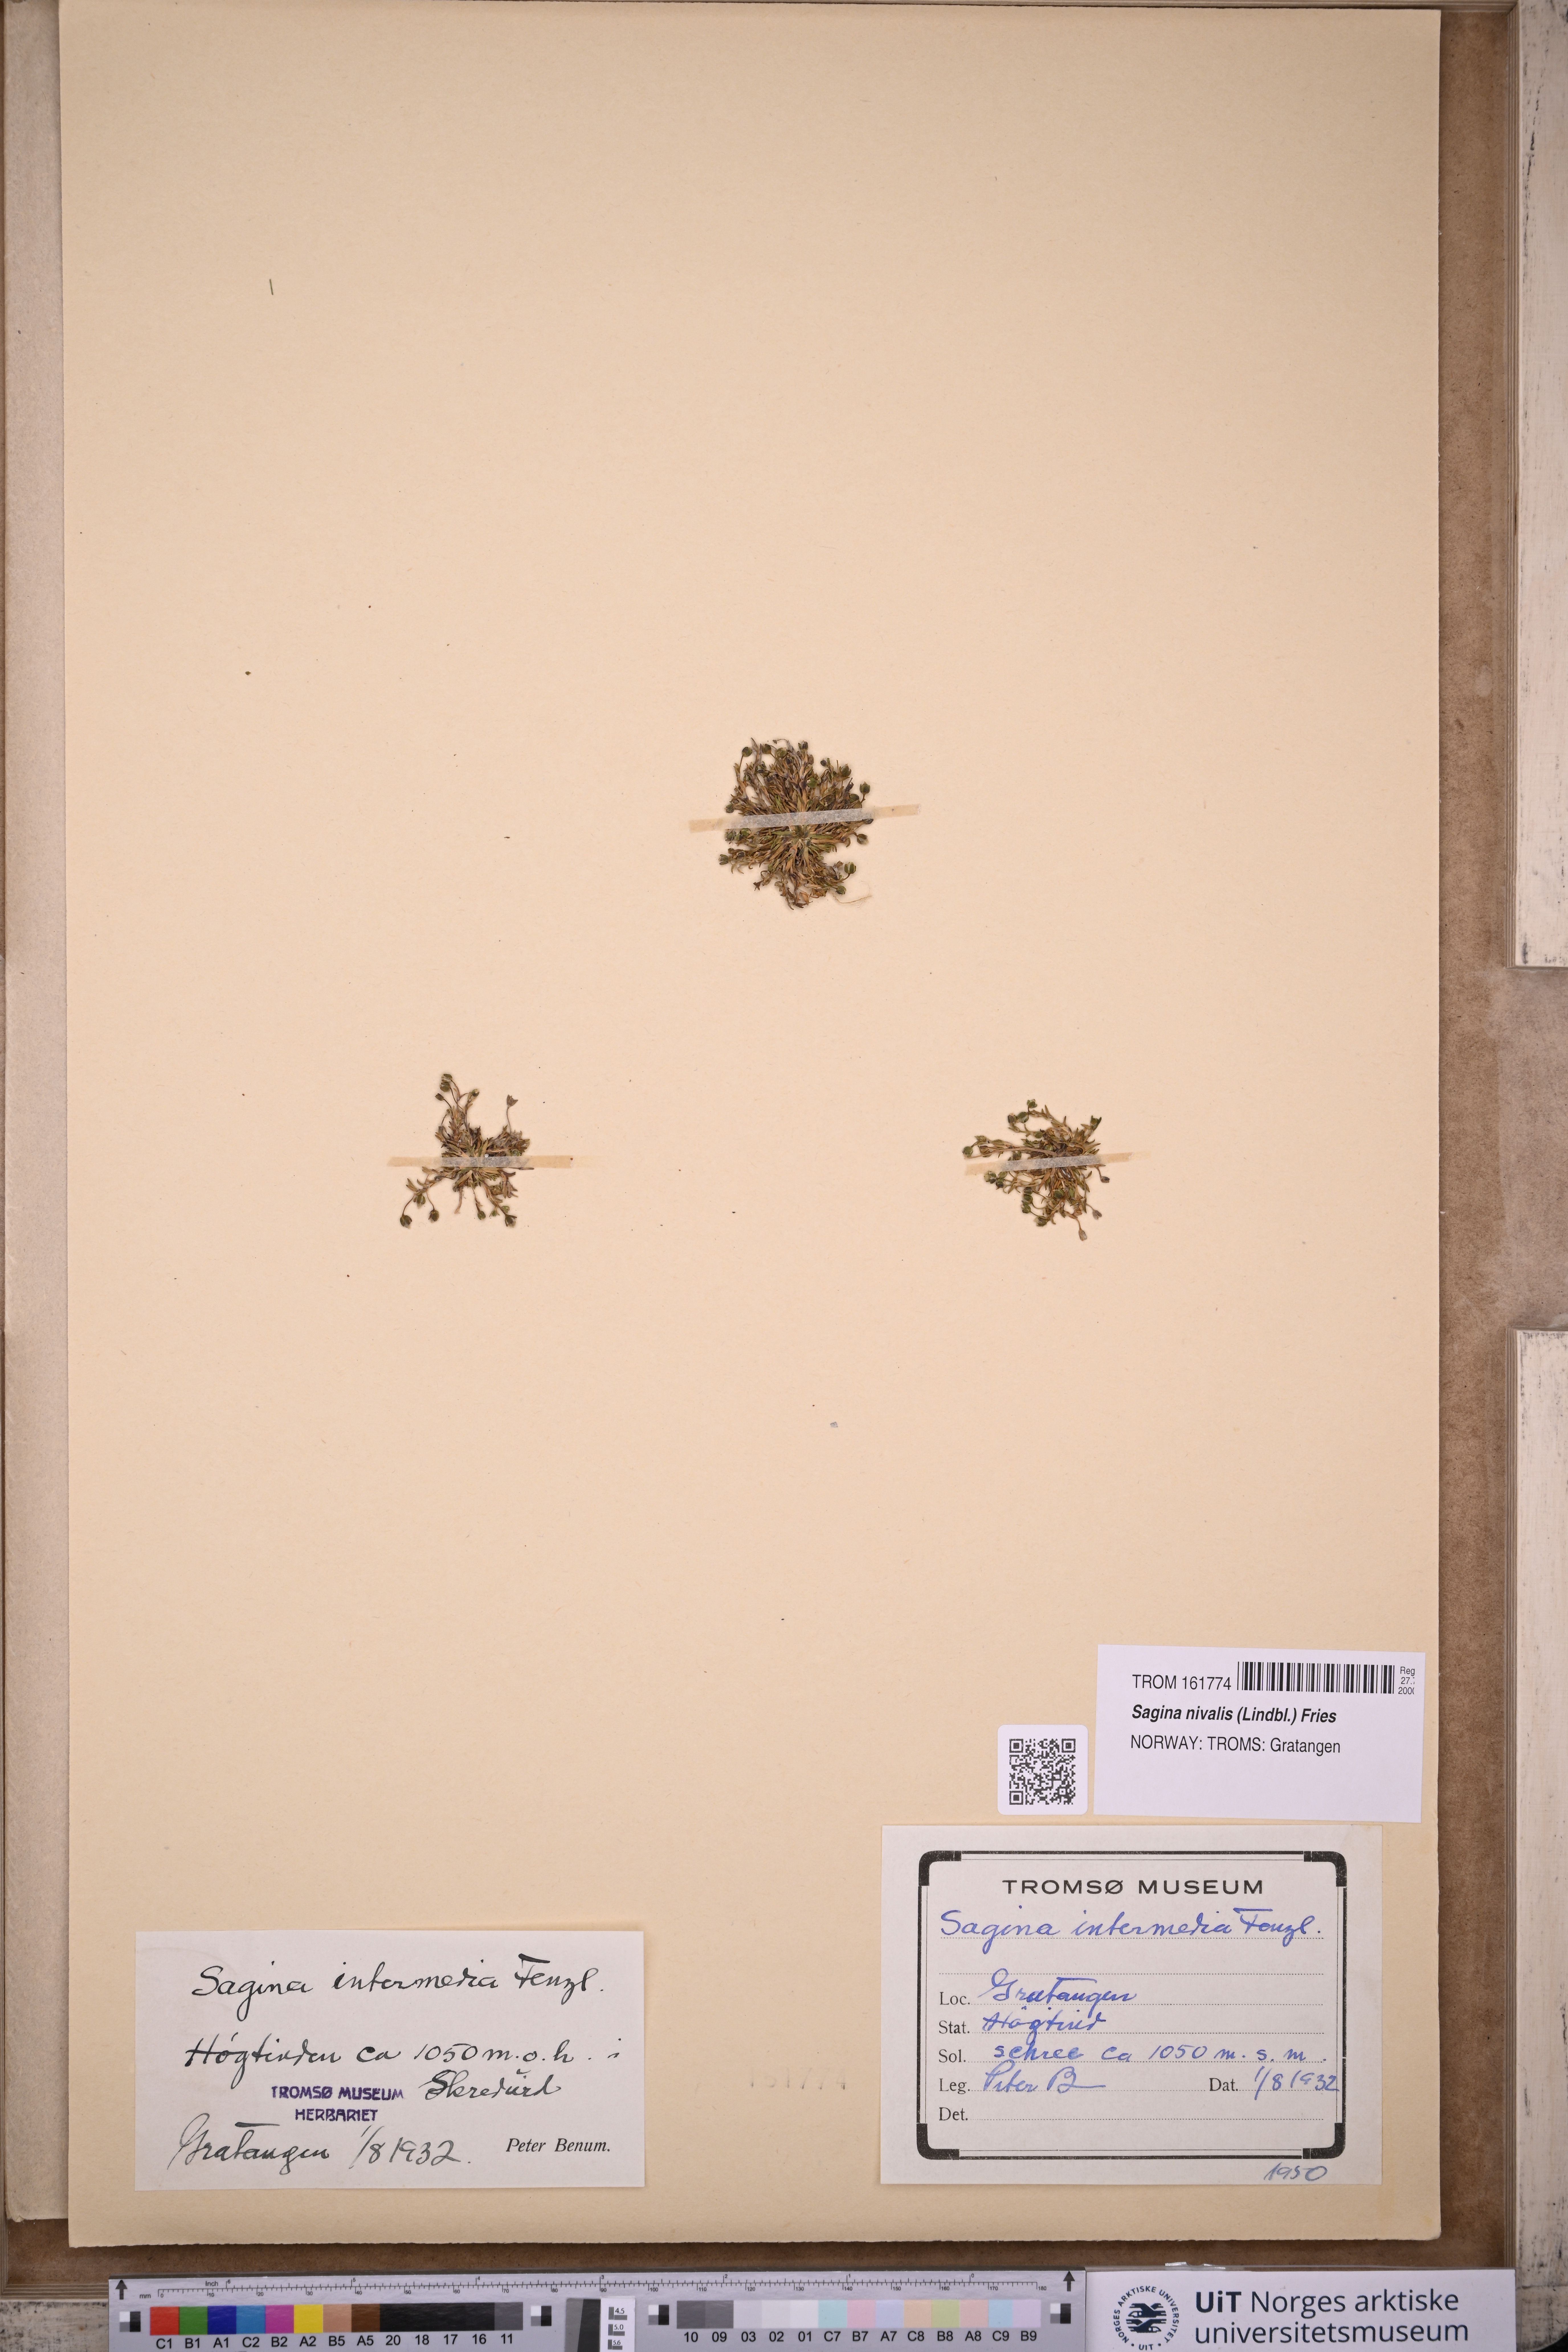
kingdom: Plantae
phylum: Tracheophyta
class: Magnoliopsida
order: Caryophyllales
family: Caryophyllaceae
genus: Sagina
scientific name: Sagina nivalis
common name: Snow pearlwort
